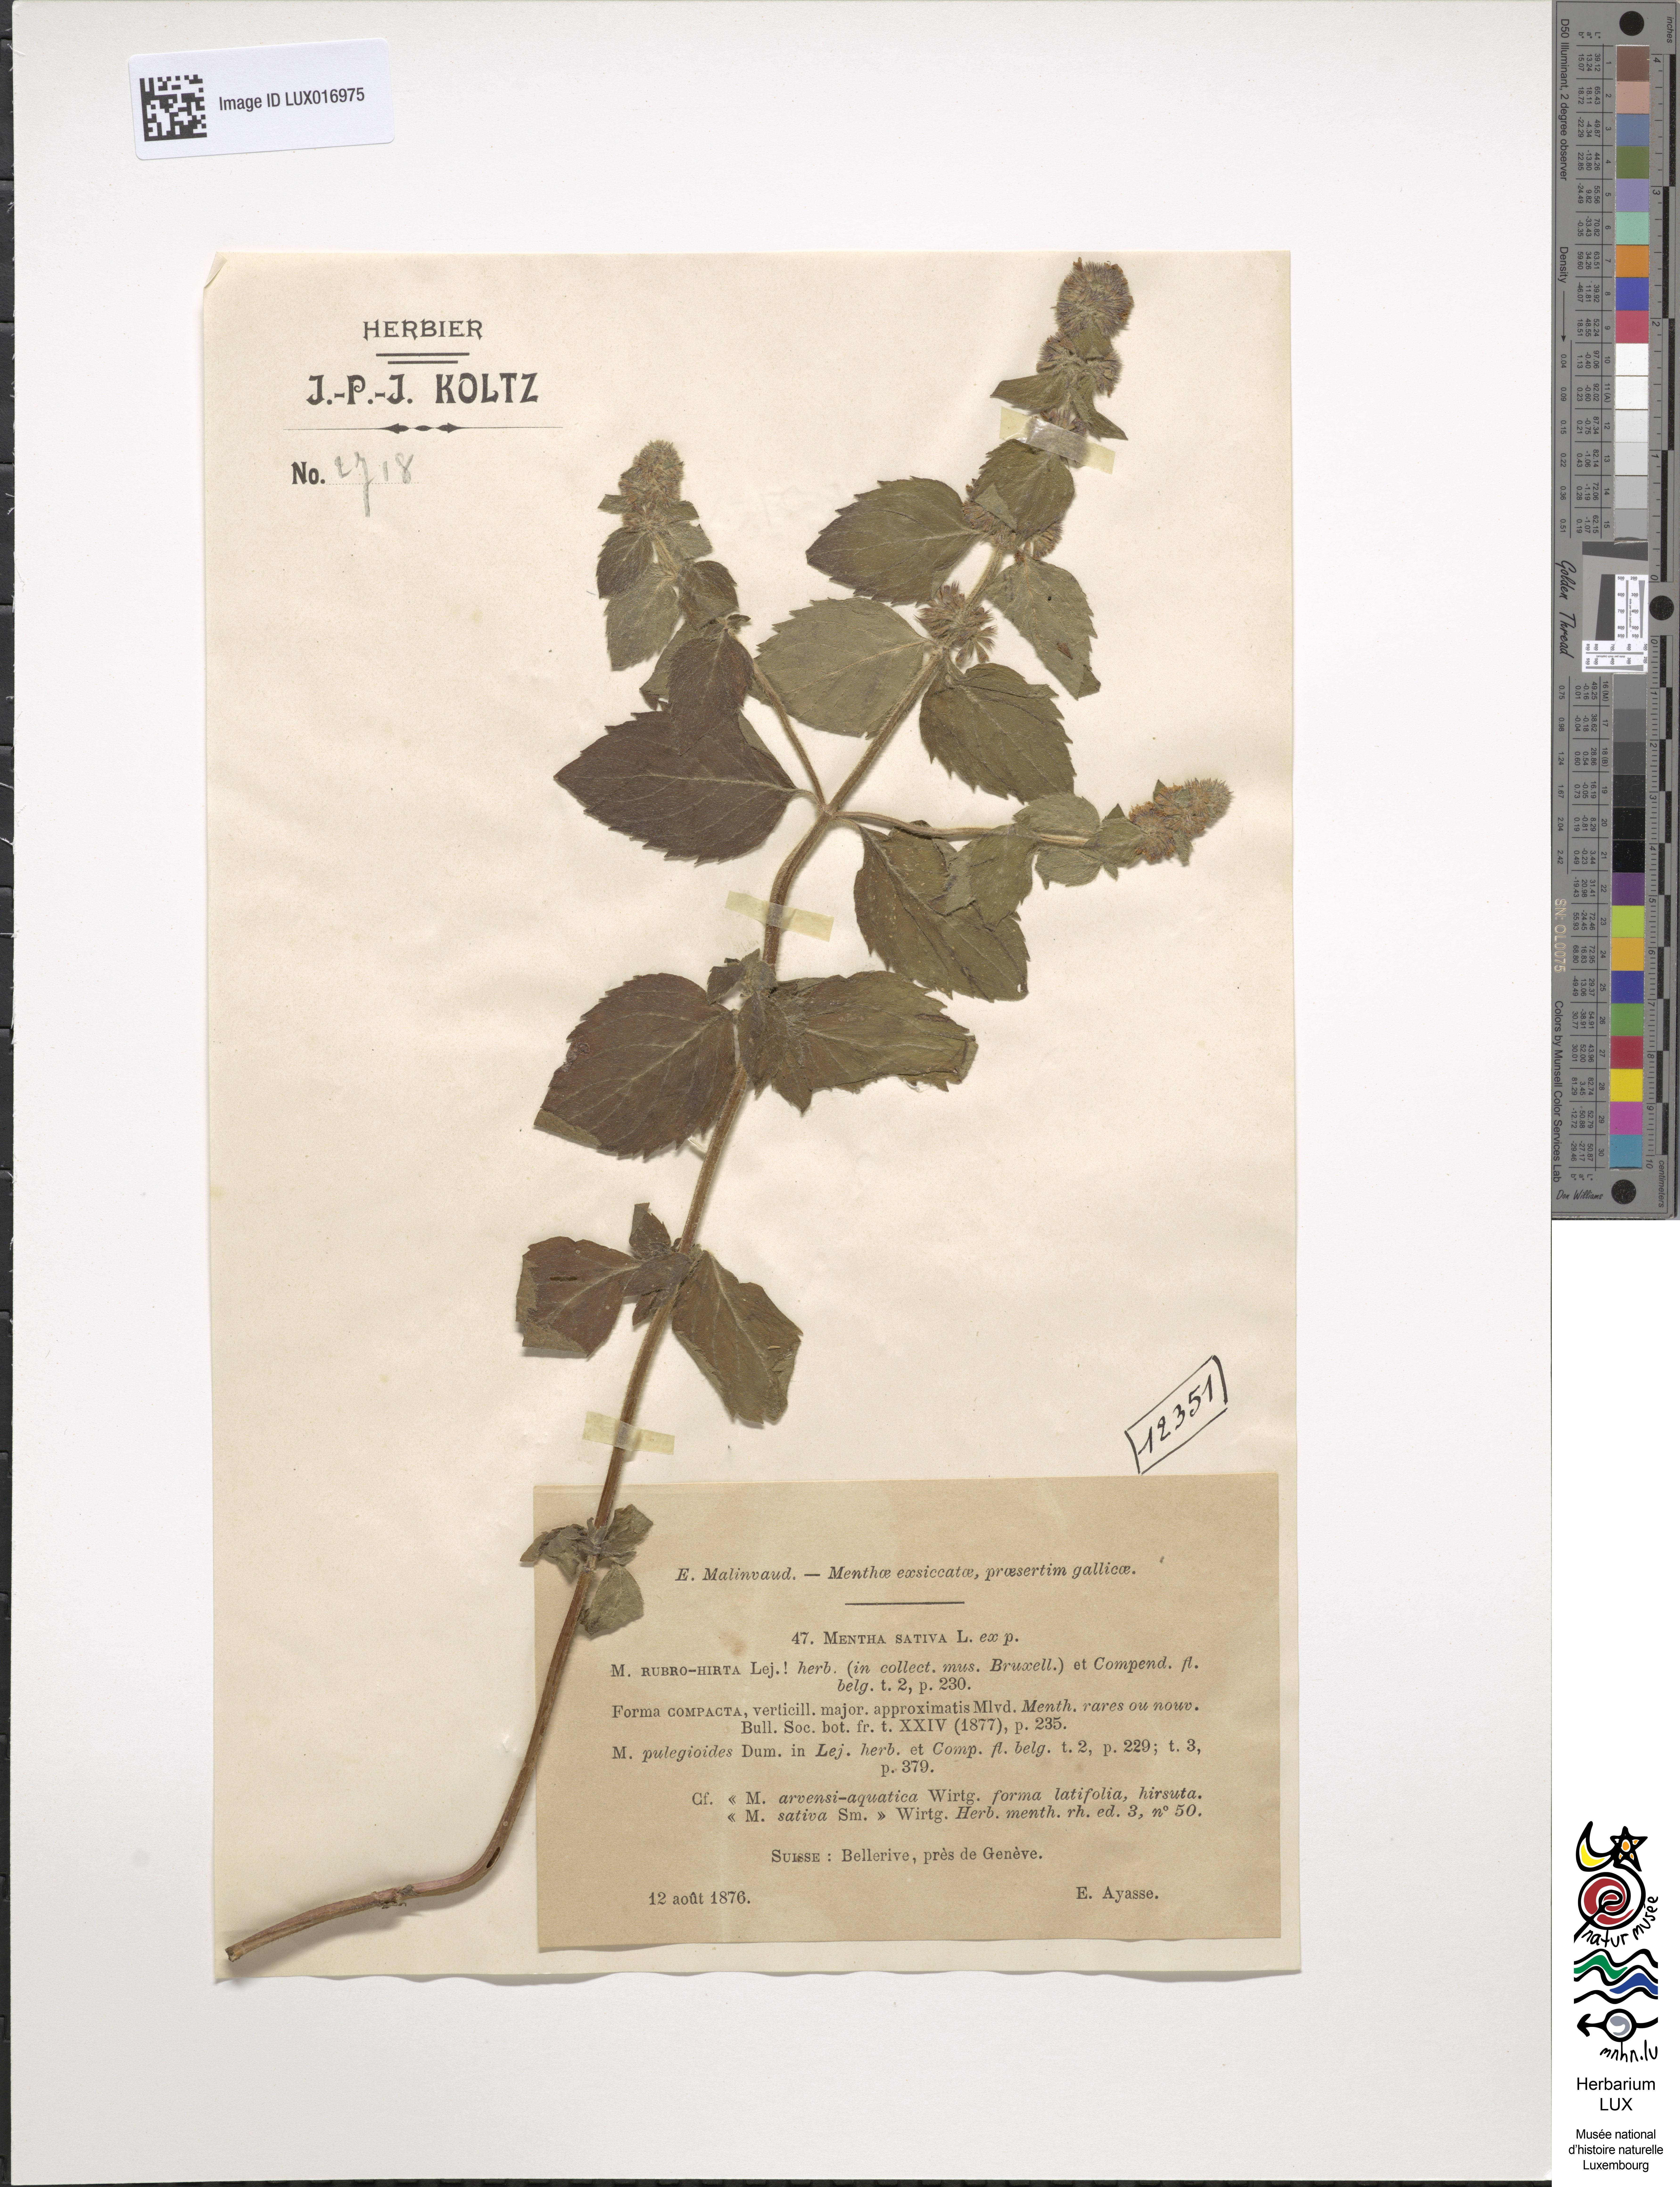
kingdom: Plantae
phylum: Tracheophyta
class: Magnoliopsida
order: Lamiales
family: Lamiaceae
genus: Mentha
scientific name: Mentha verticillata
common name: Mint
